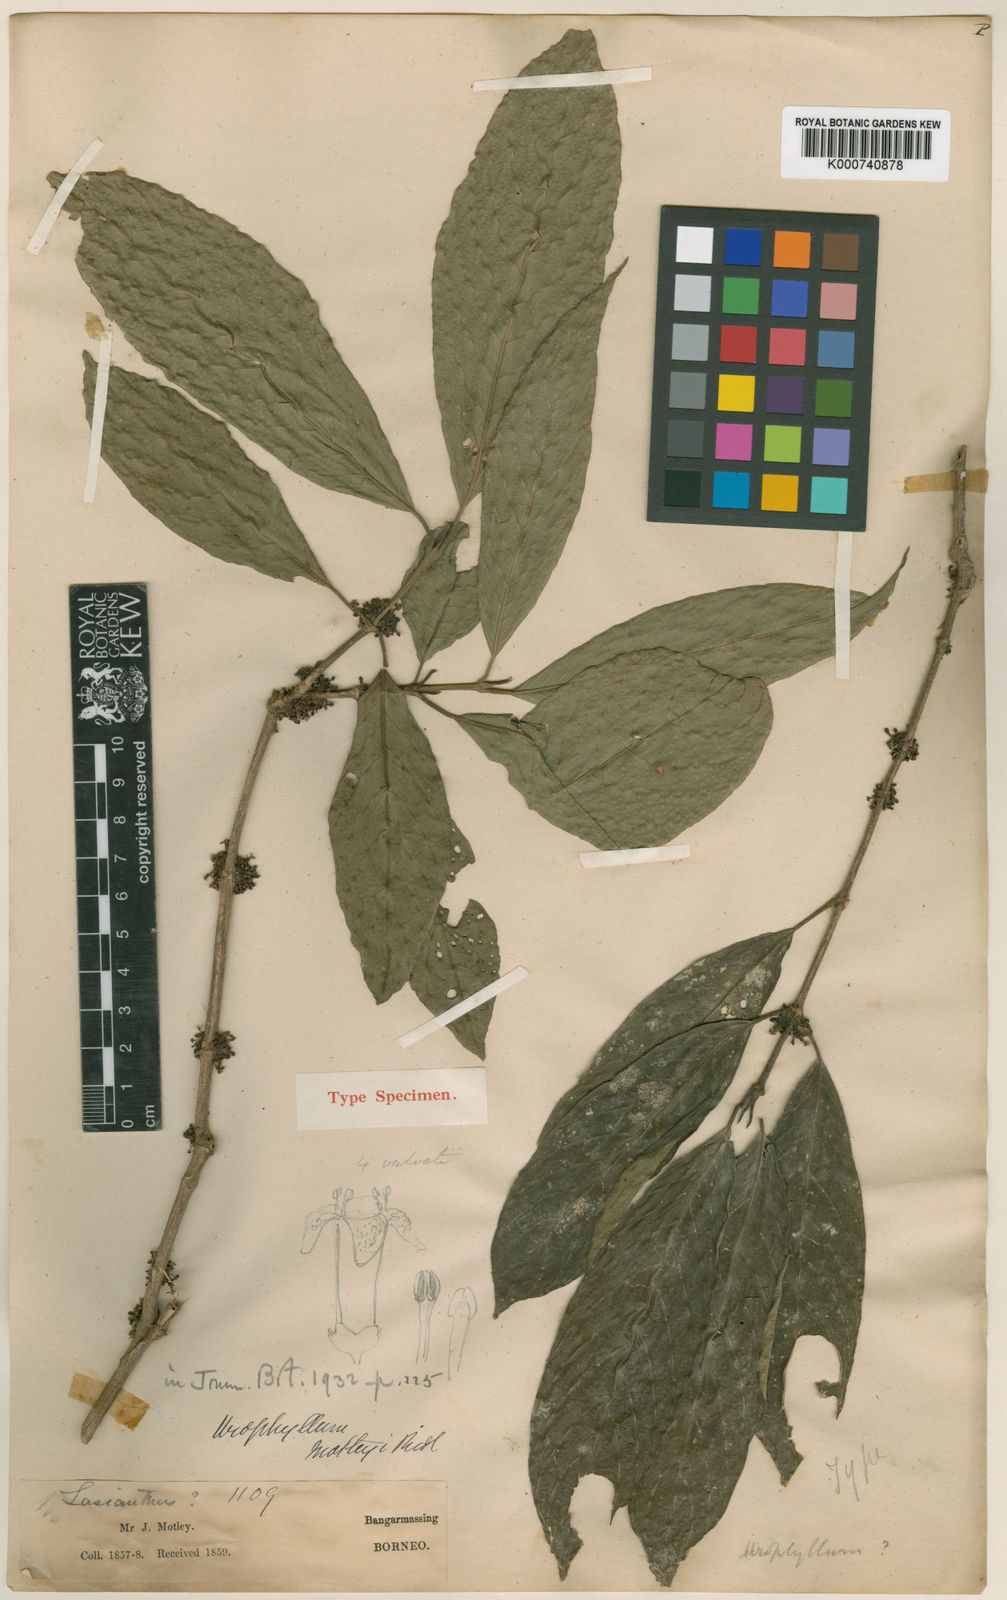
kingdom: Plantae
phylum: Tracheophyta
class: Magnoliopsida
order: Gentianales
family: Rubiaceae
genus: Urophyllum
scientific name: Urophyllum motleyi
